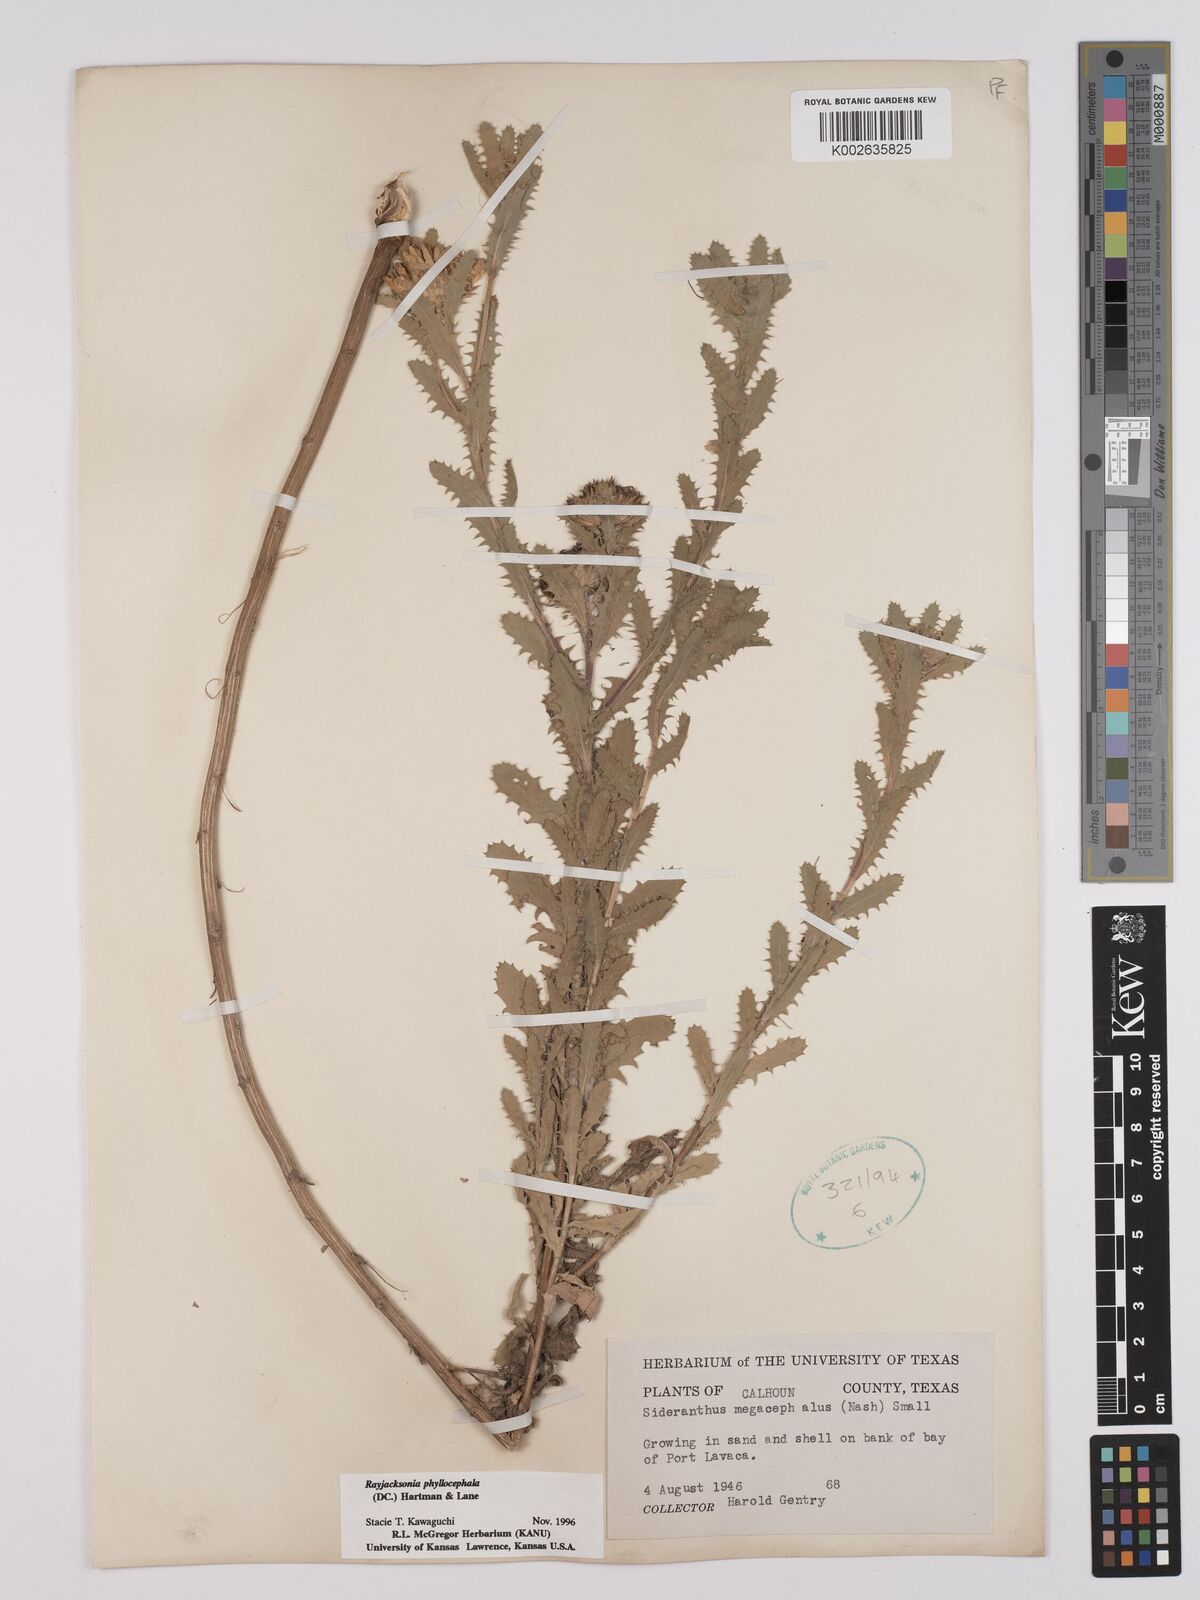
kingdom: Plantae
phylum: Tracheophyta
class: Magnoliopsida
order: Asterales
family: Asteraceae
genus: Rayjacksonia
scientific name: Rayjacksonia phyllocephala
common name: Gulf coast camphor daisy
